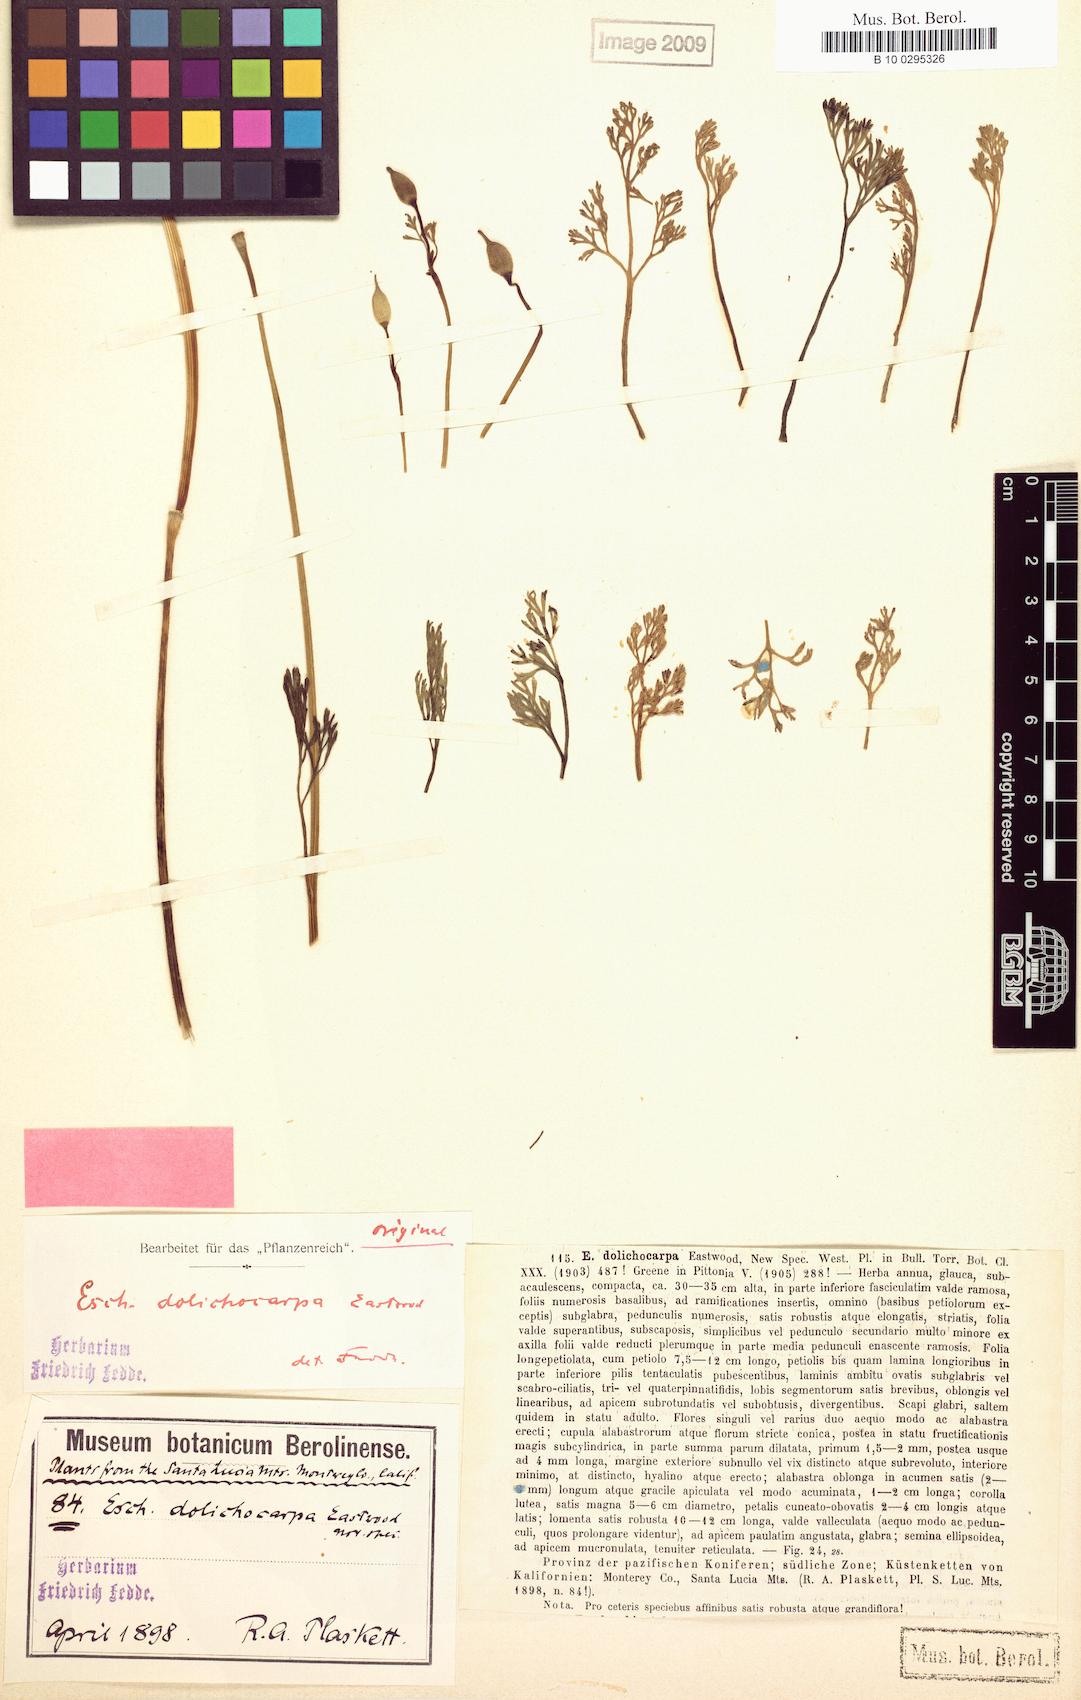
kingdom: Plantae
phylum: Tracheophyta
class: Magnoliopsida
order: Ranunculales
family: Papaveraceae
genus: Eschscholzia
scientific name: Eschscholzia caespitosa
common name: Tufted california-poppy
